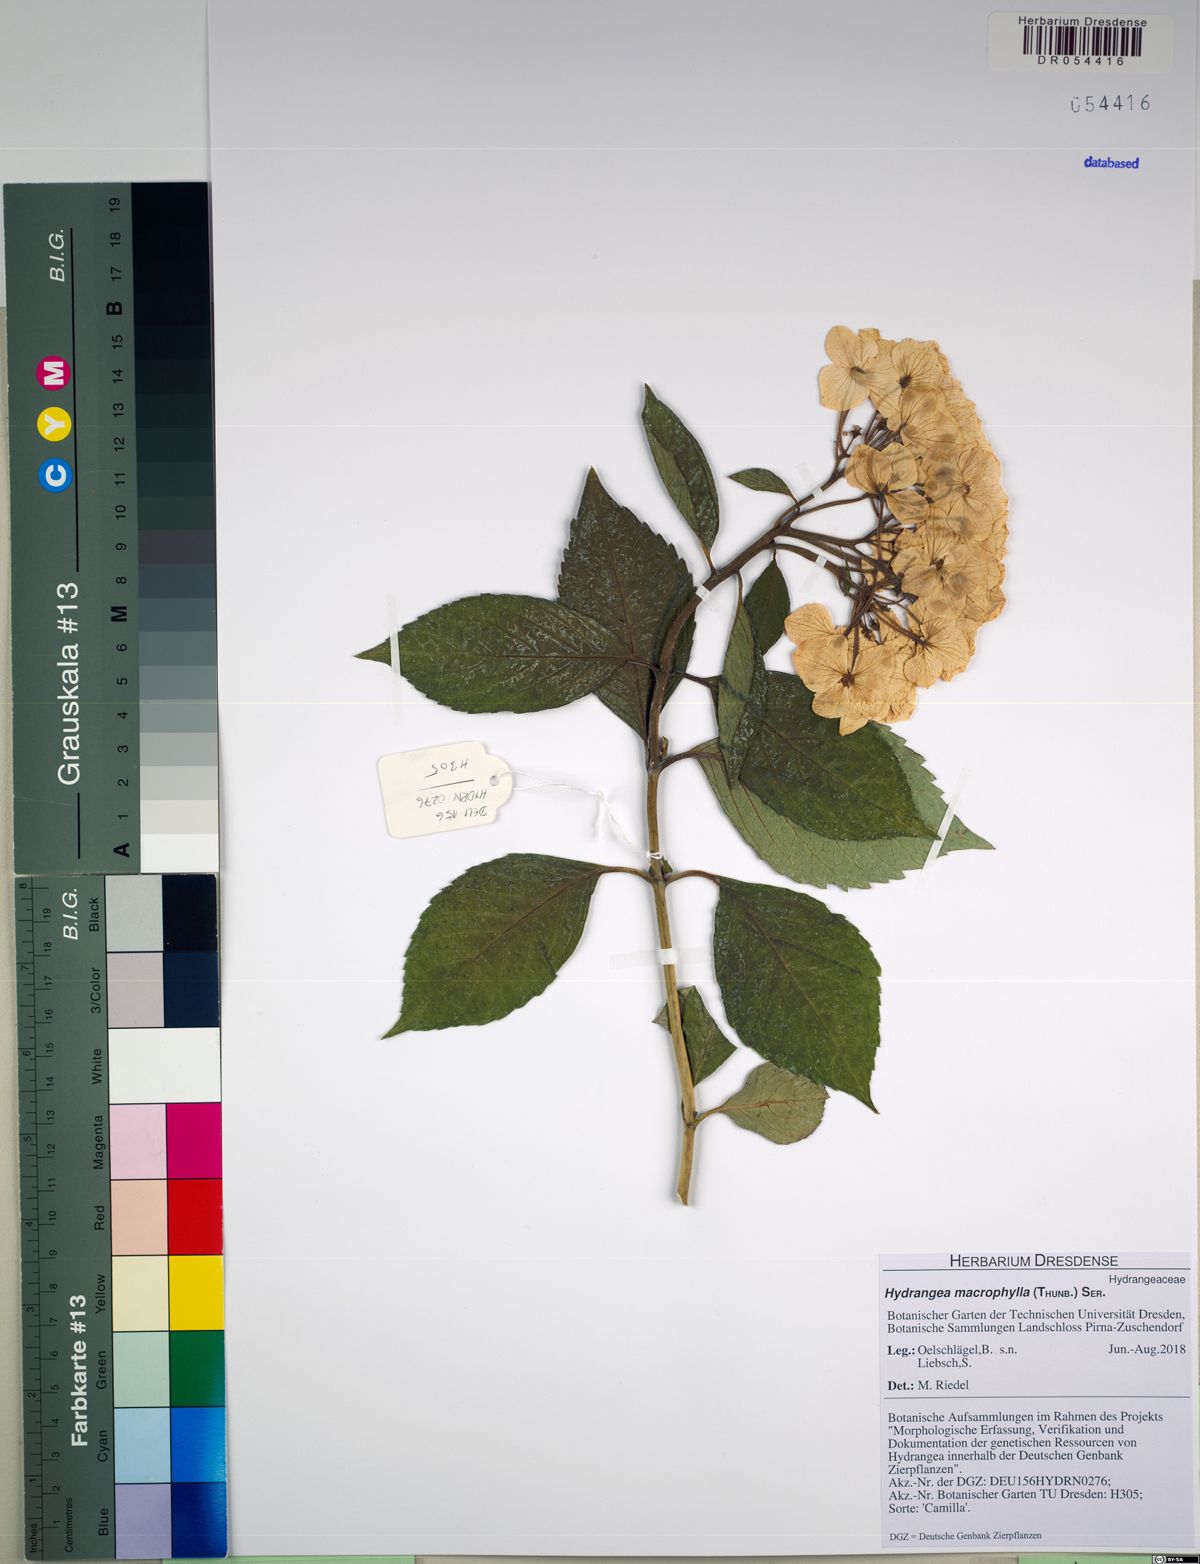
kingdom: Plantae
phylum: Tracheophyta
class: Magnoliopsida
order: Cornales
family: Hydrangeaceae
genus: Hydrangea
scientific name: Hydrangea macrophylla
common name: Hydrangea
